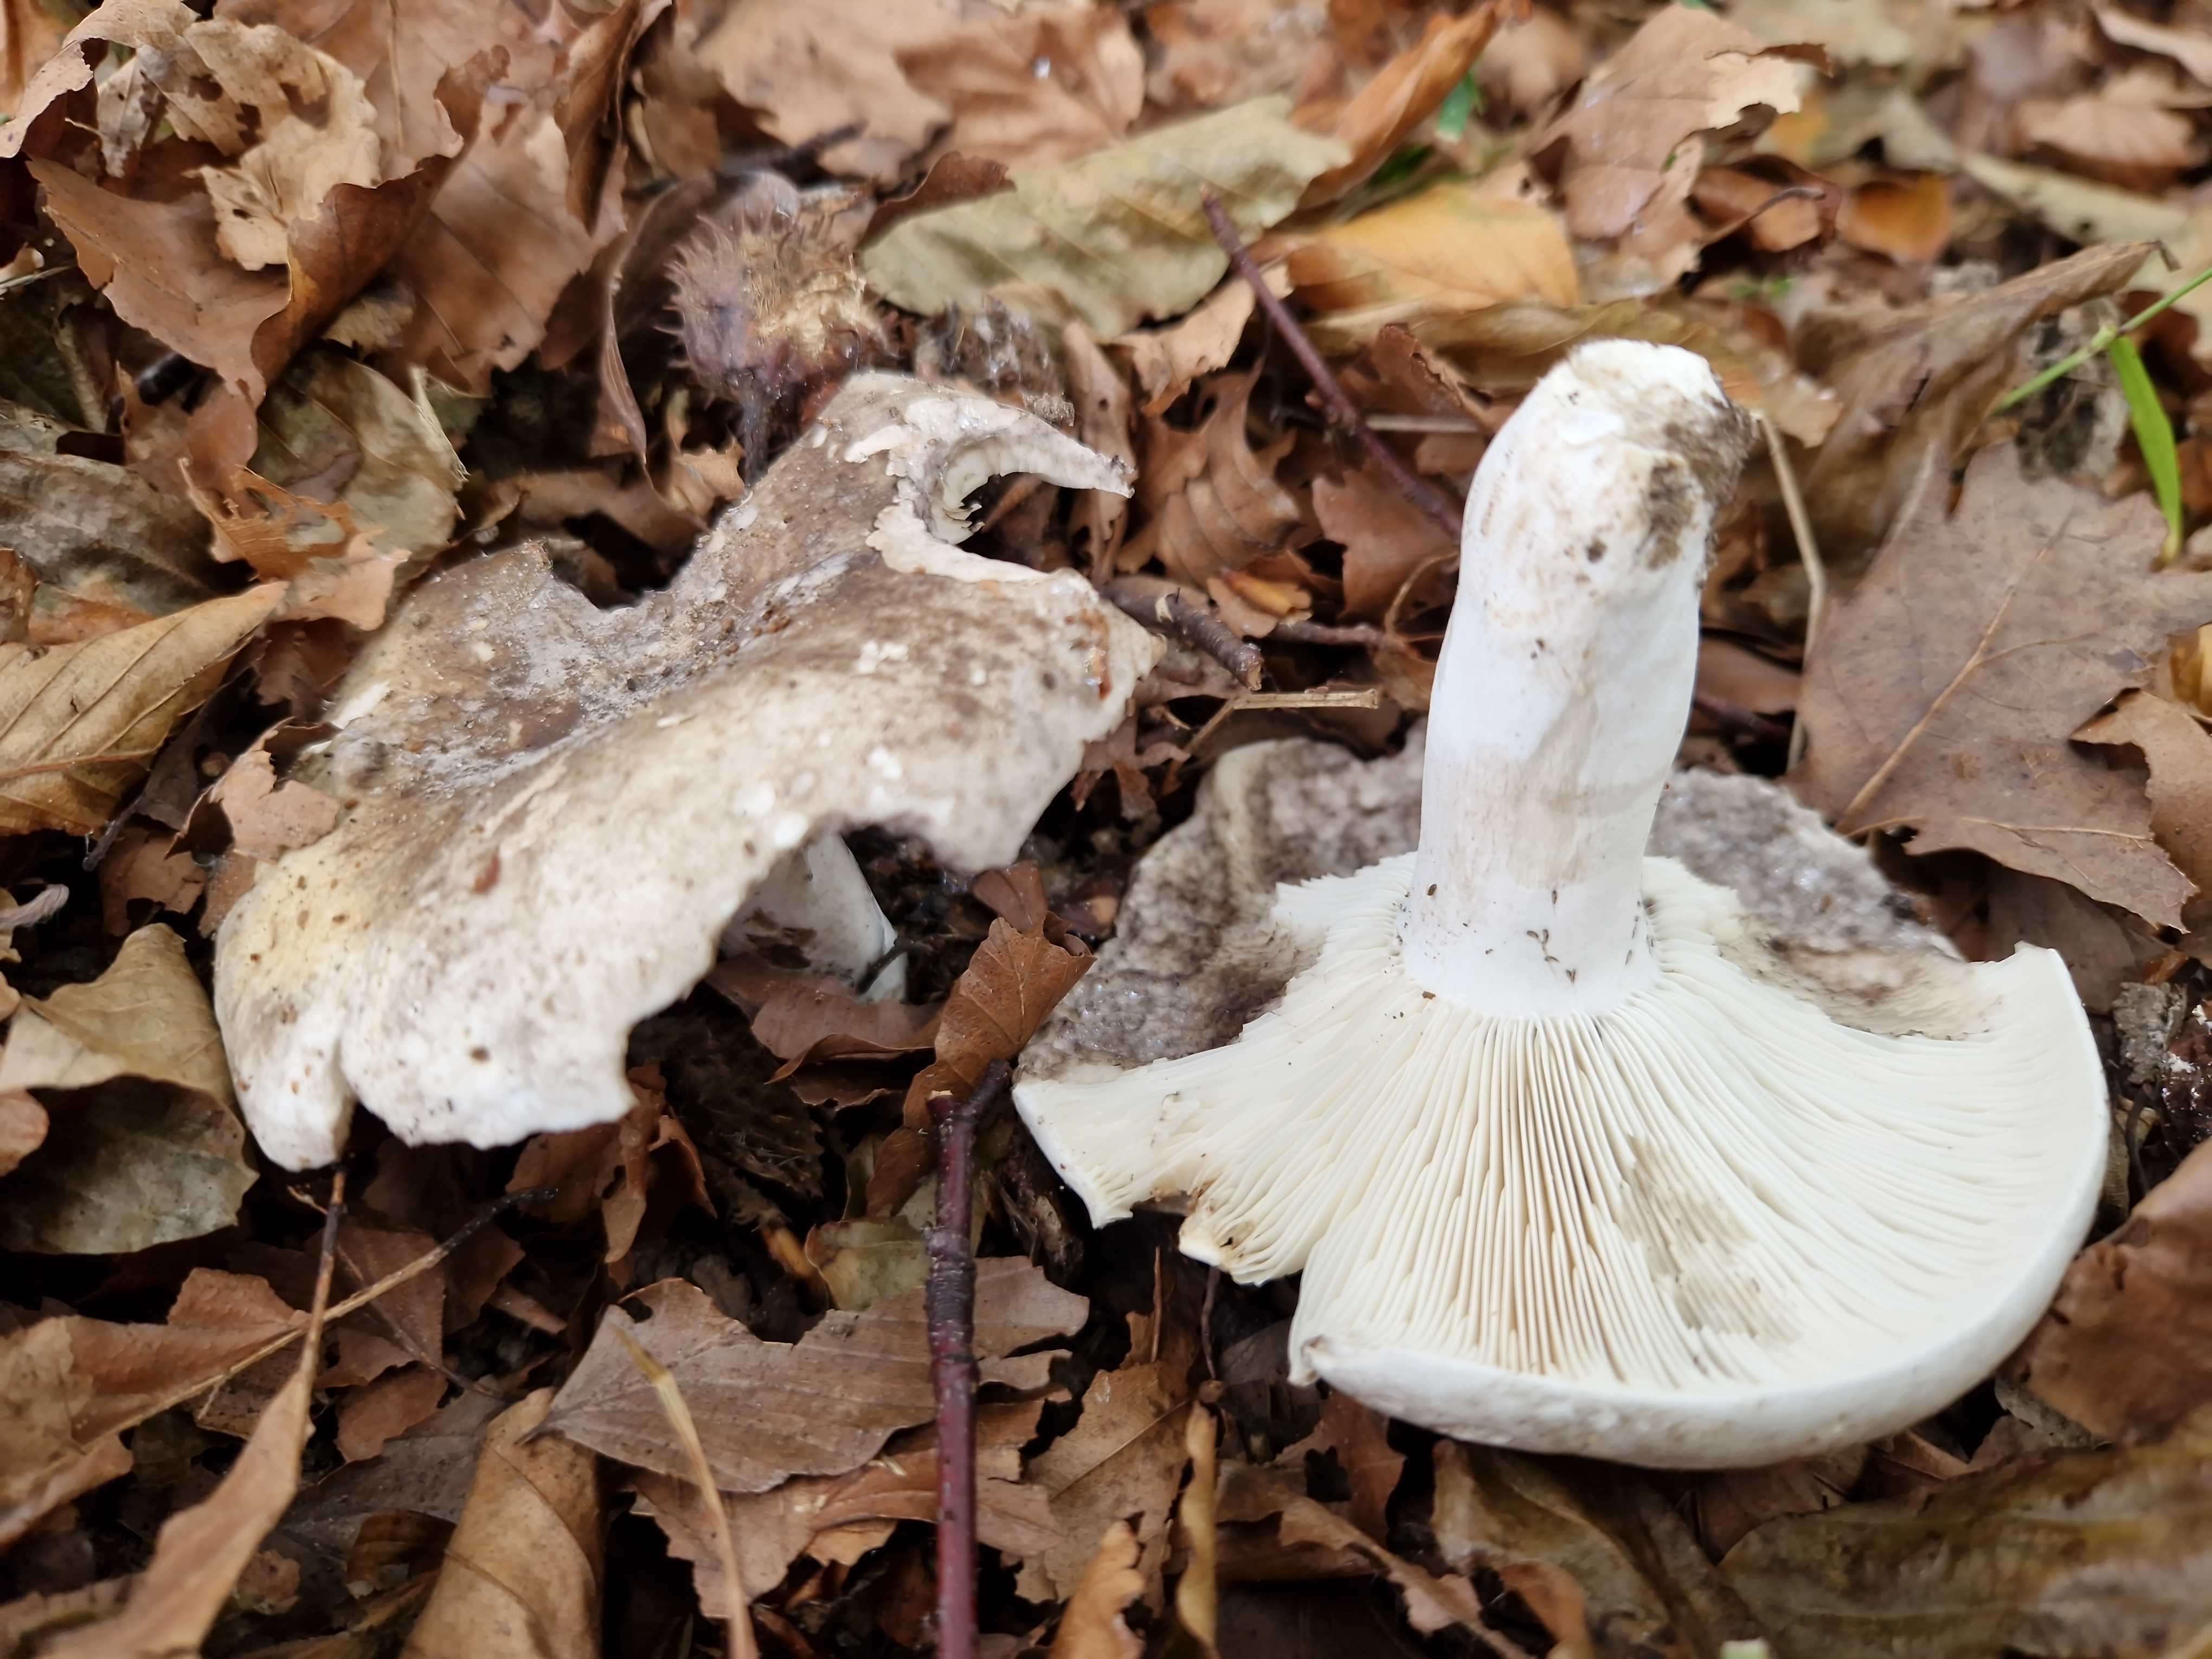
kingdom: Fungi
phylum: Basidiomycota
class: Agaricomycetes
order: Russulales
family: Russulaceae
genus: Russula
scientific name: Russula anthracina
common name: kul-skørhat
